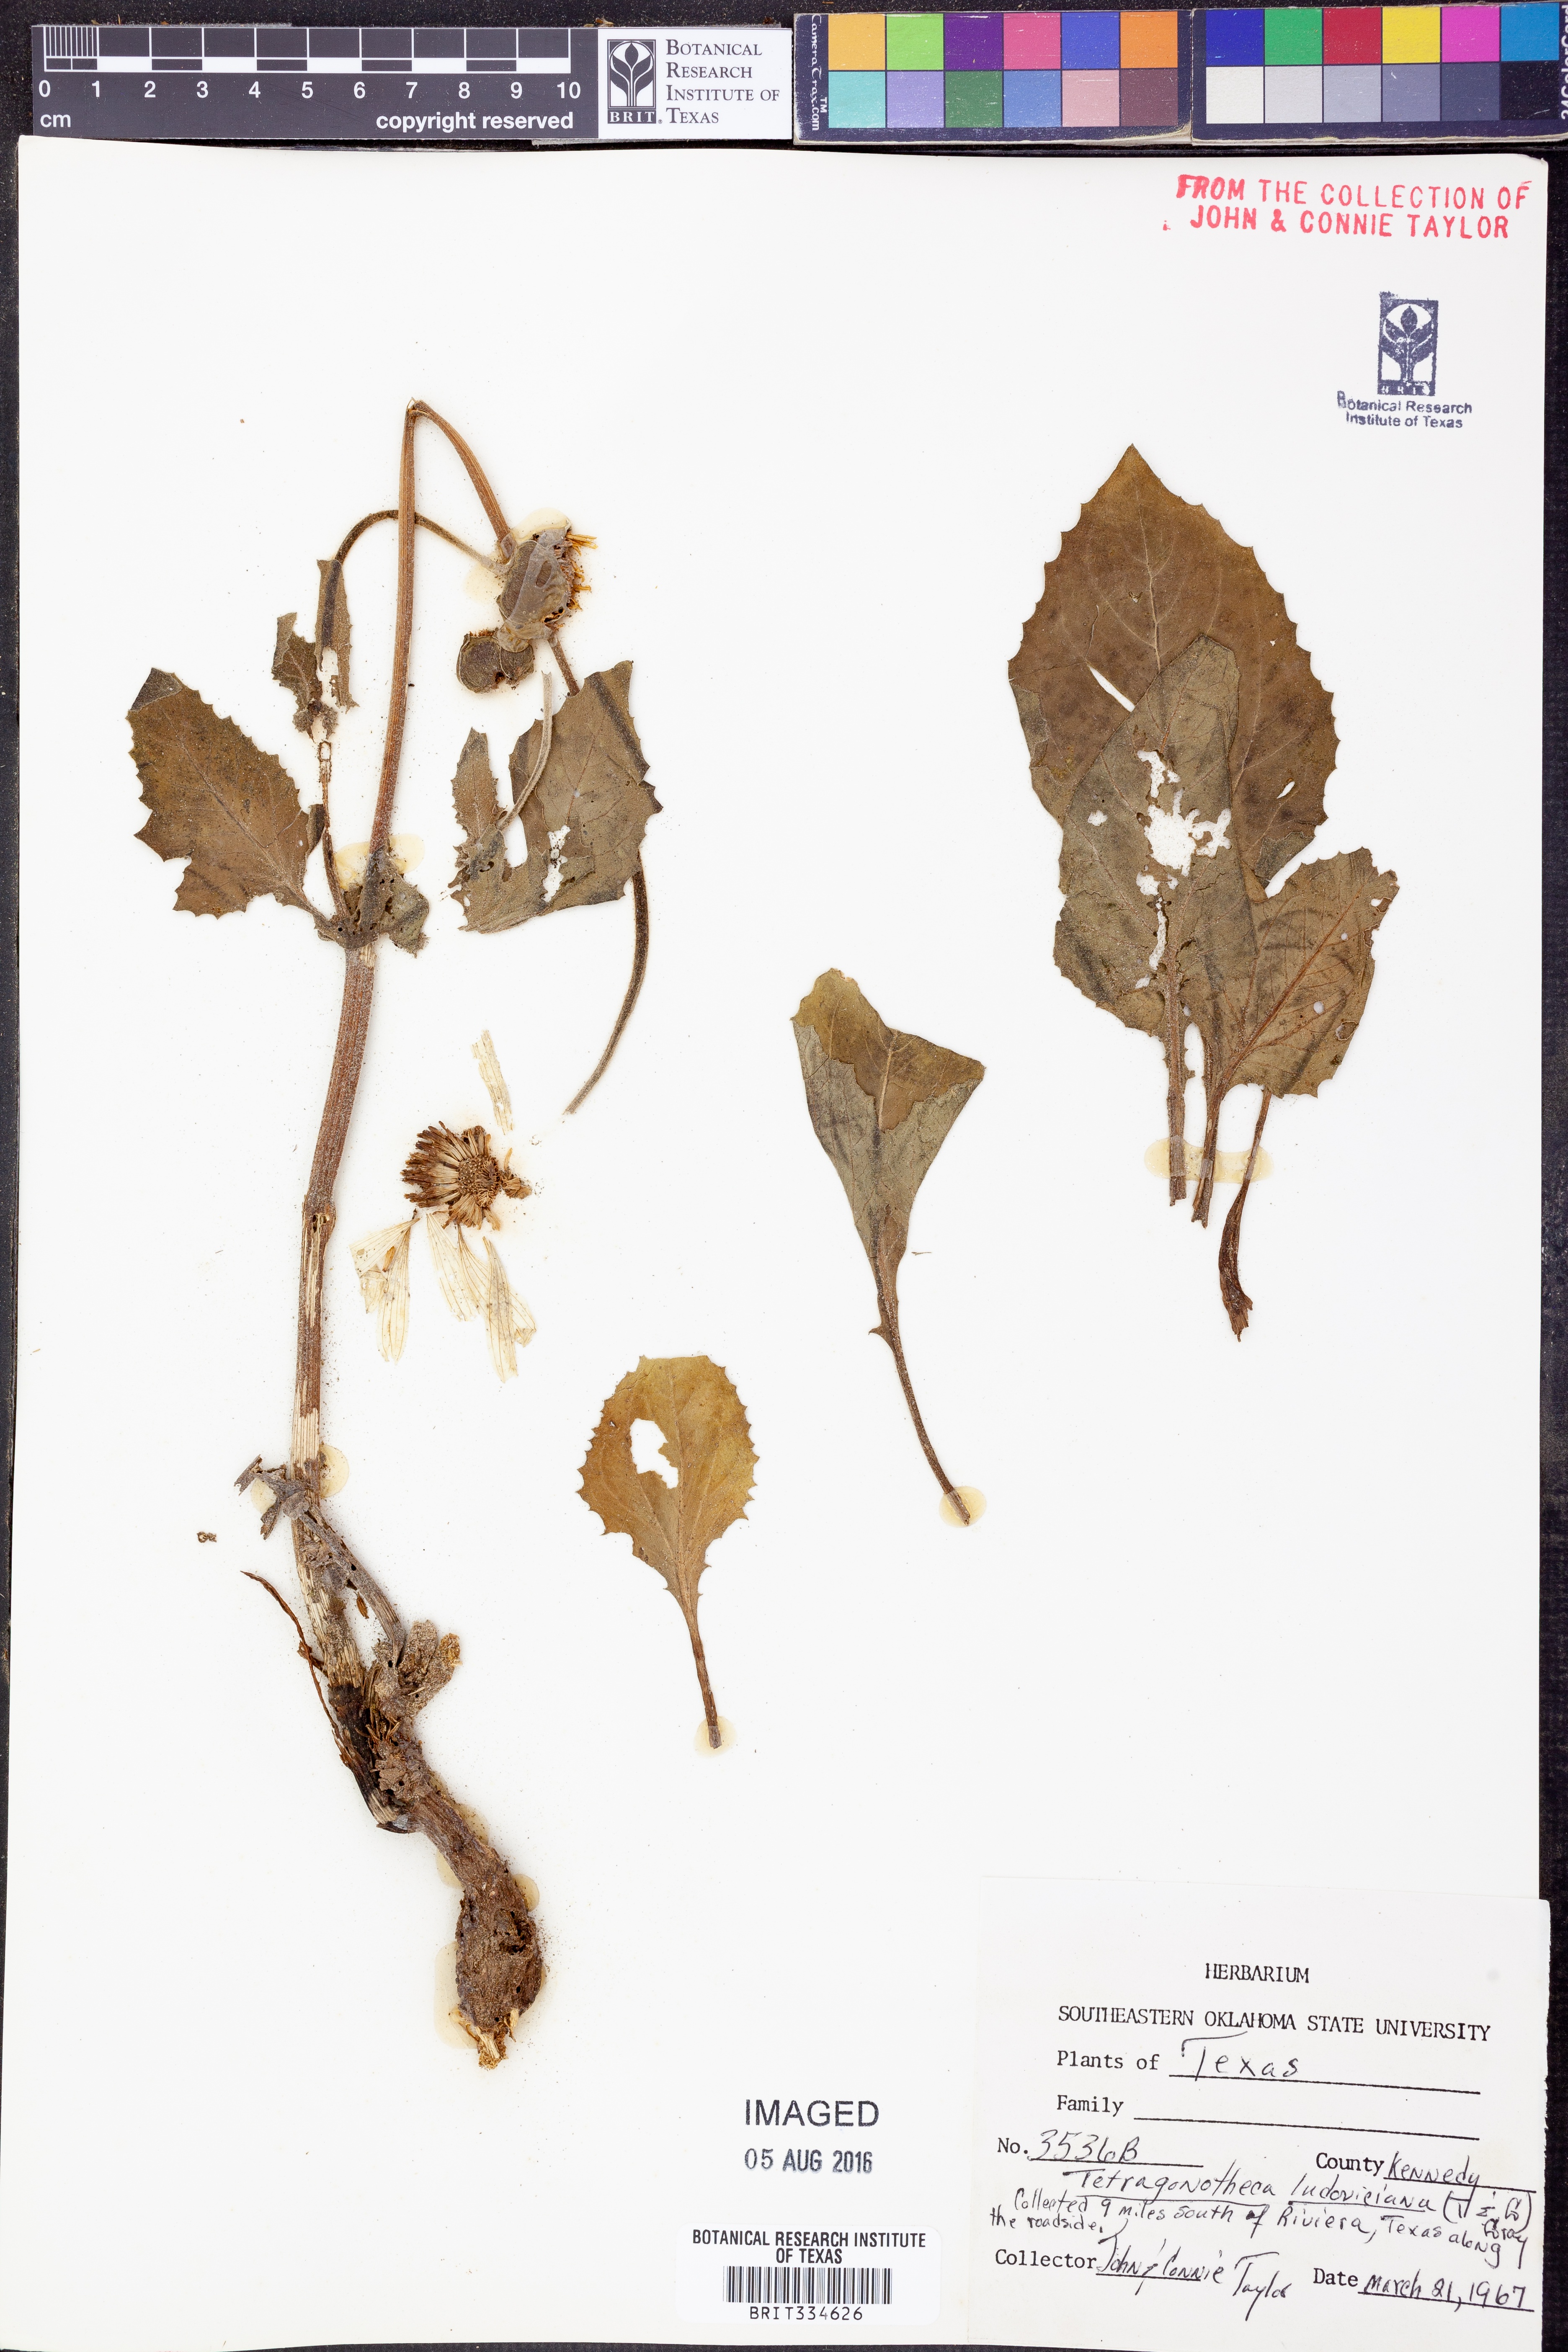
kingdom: Plantae
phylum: Tracheophyta
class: Magnoliopsida
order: Asterales
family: Asteraceae
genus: Tetragonotheca
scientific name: Tetragonotheca ludoviciana
